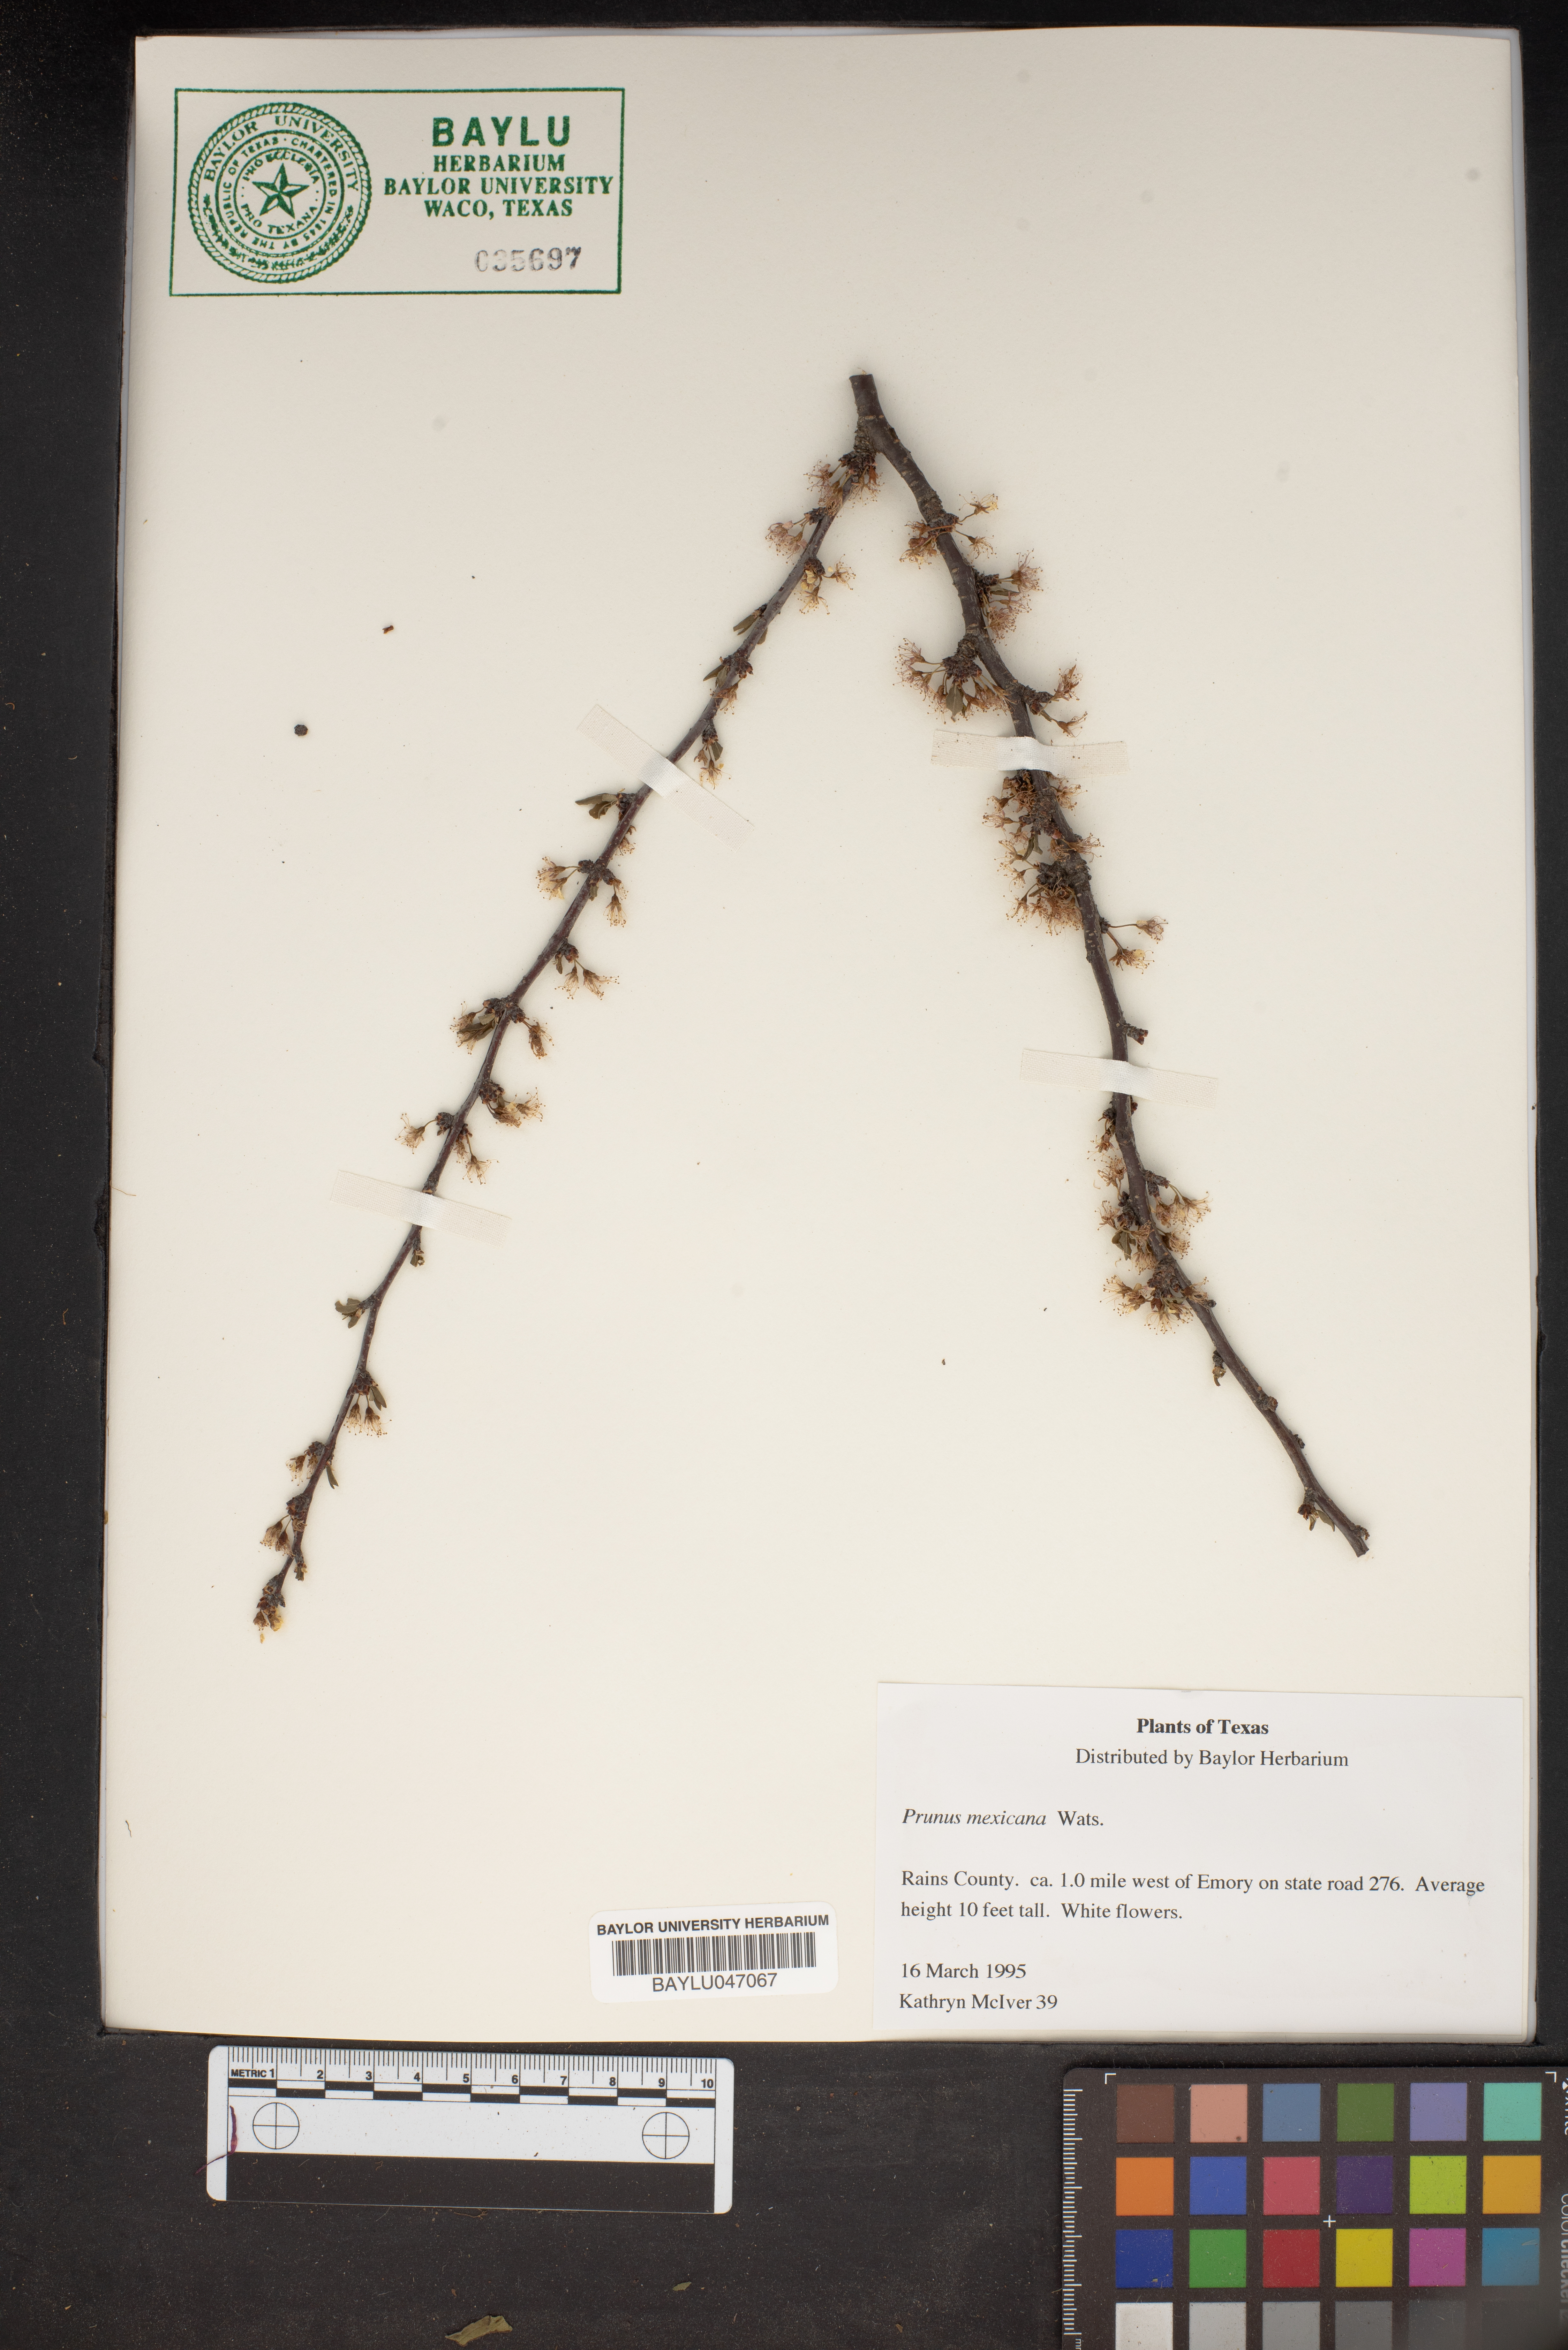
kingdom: Plantae
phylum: Tracheophyta
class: Magnoliopsida
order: Rosales
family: Rosaceae
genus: Prunus
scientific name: Prunus mexicana
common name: Mexican plum
